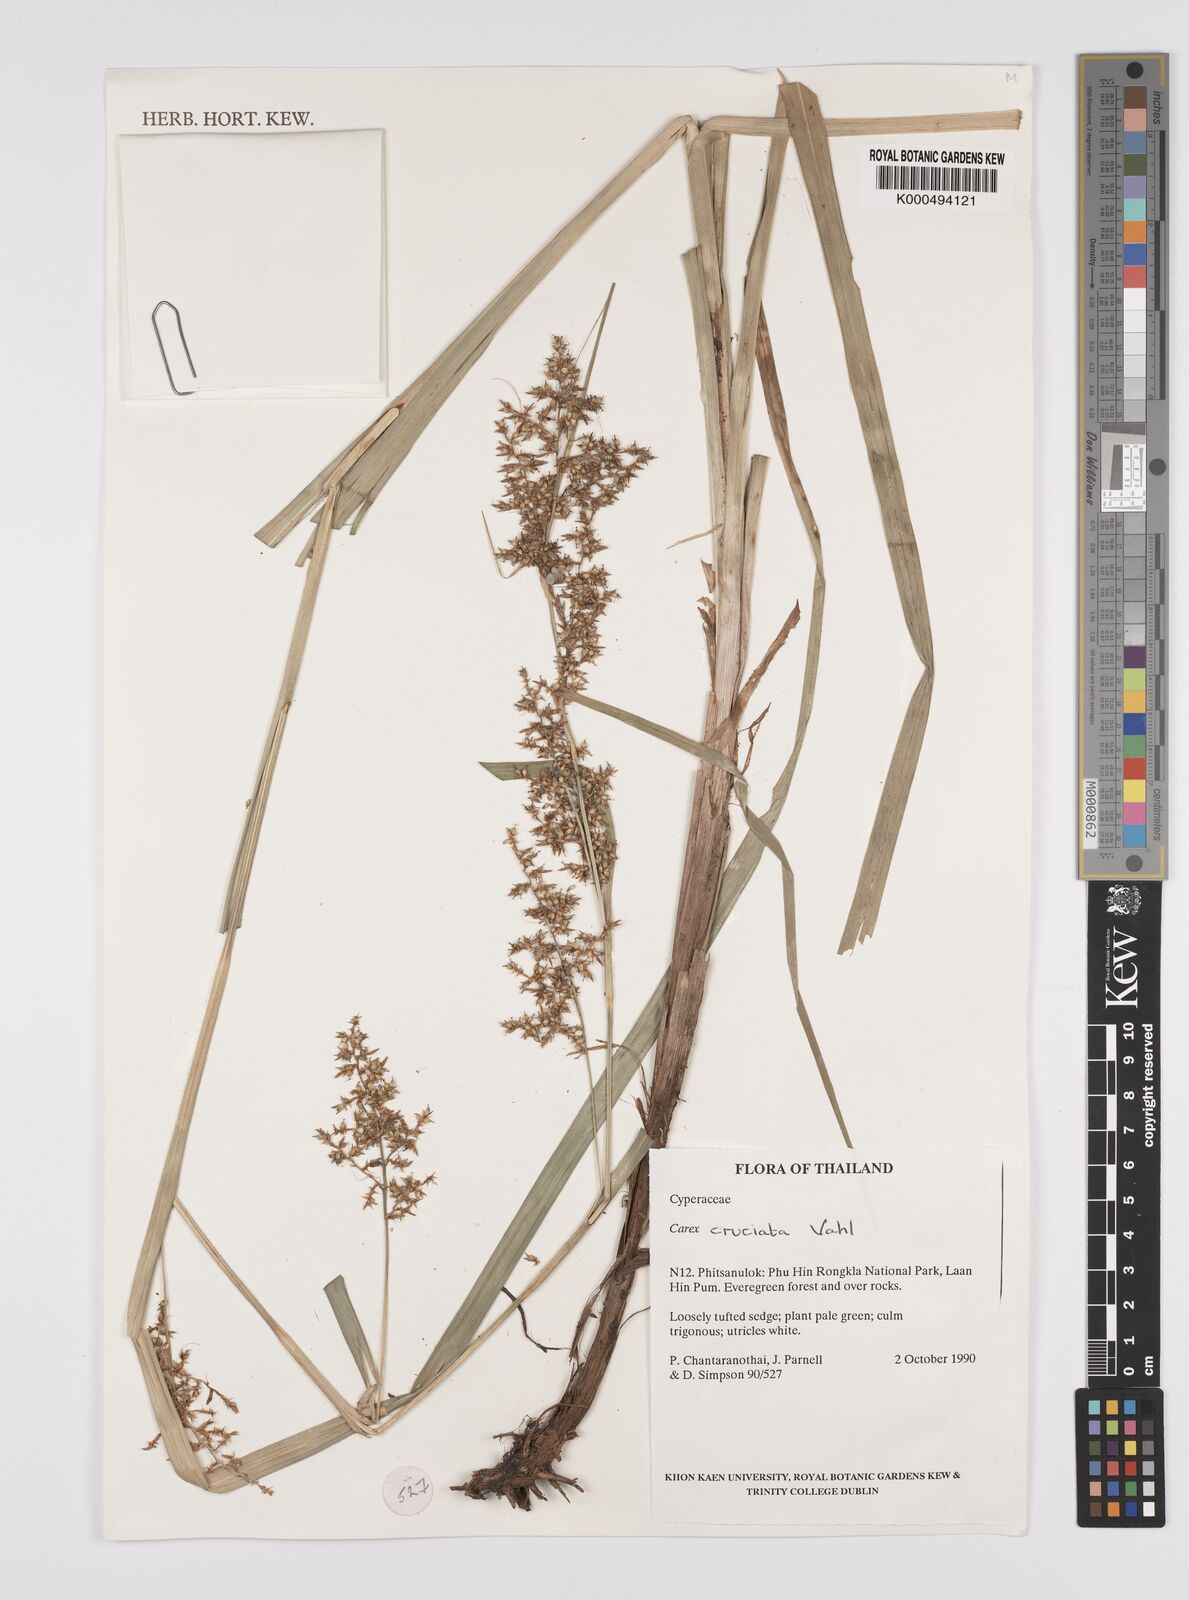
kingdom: Plantae
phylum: Tracheophyta
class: Liliopsida
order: Poales
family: Cyperaceae
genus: Carex
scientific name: Carex
